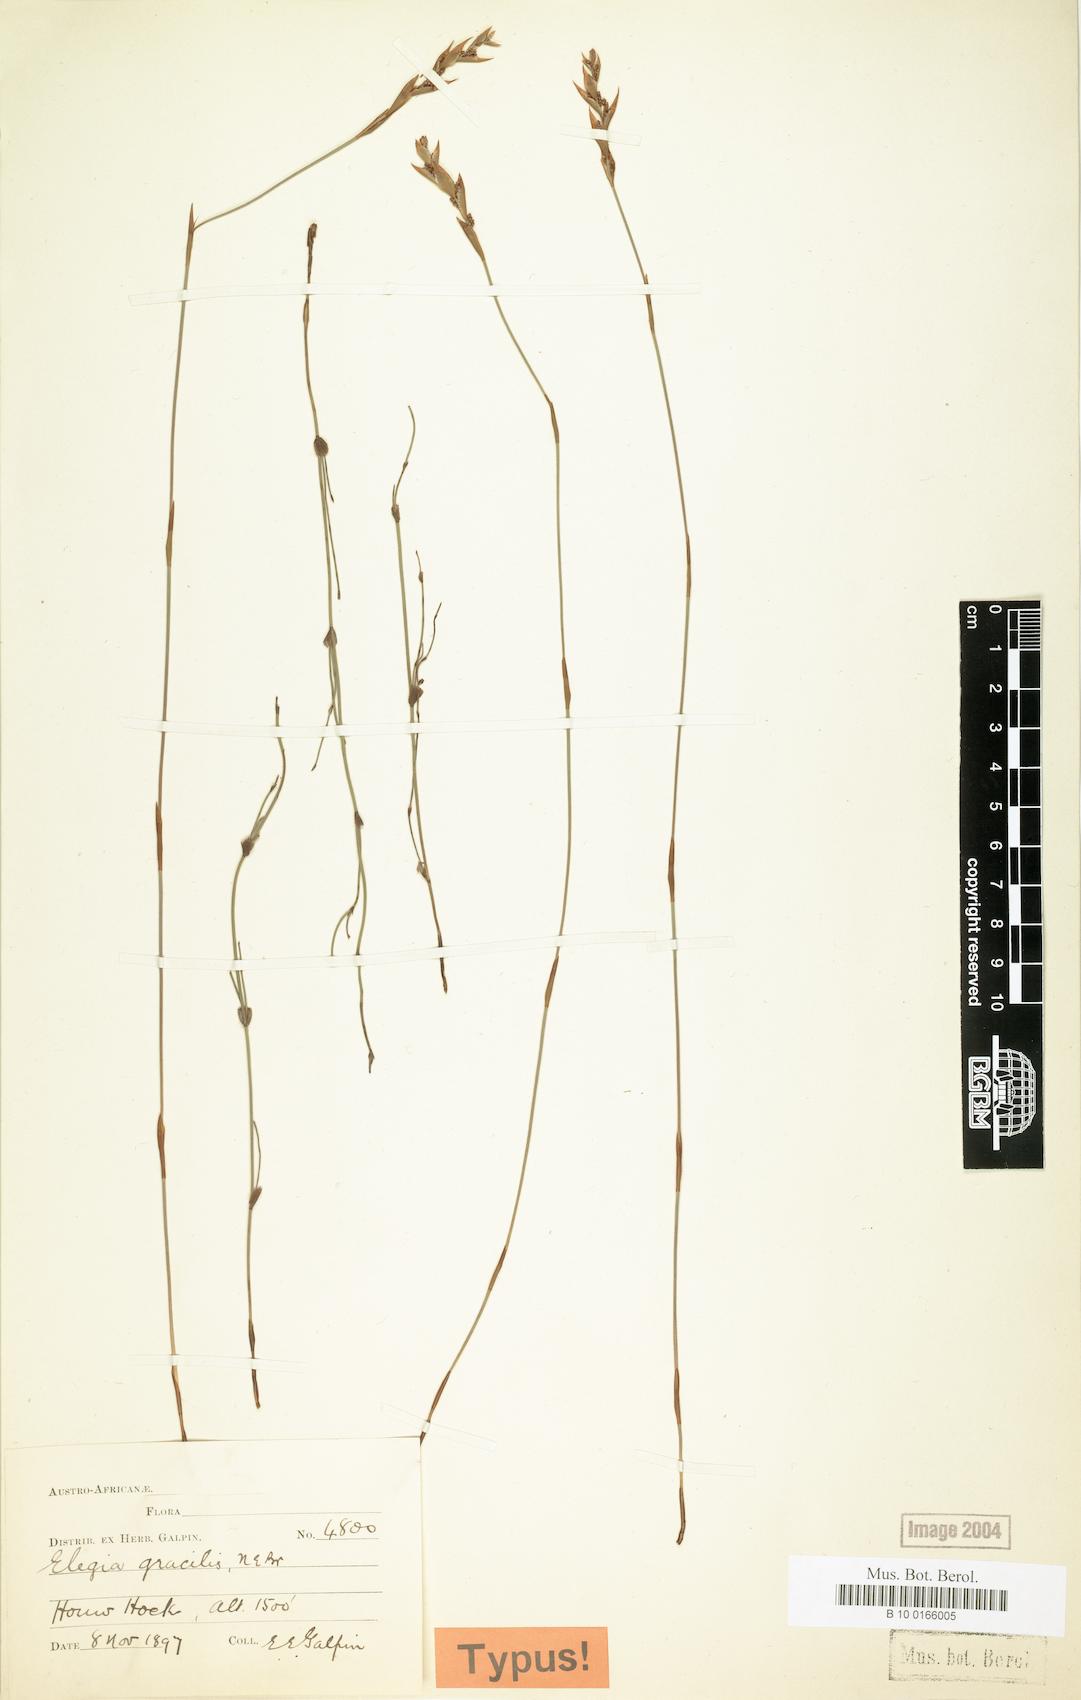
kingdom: Plantae
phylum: Tracheophyta
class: Liliopsida
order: Poales
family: Restionaceae
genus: Cannomois
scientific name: Cannomois parviflora
